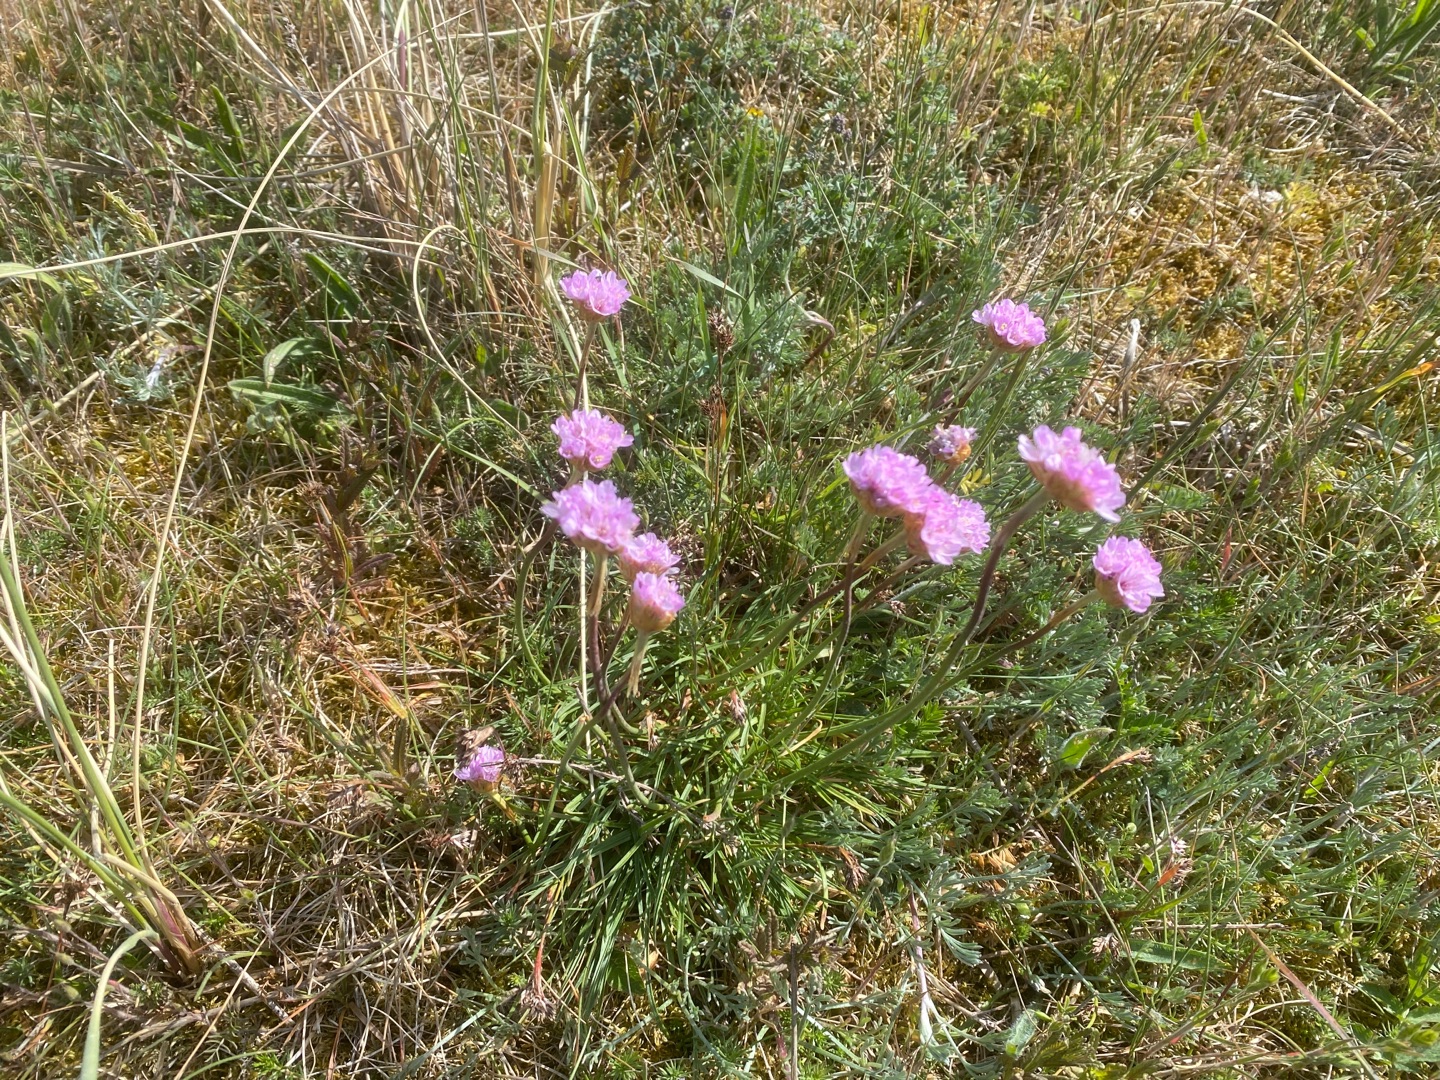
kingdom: Plantae
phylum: Tracheophyta
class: Magnoliopsida
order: Caryophyllales
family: Plumbaginaceae
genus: Armeria
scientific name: Armeria maritima
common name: Engelskgræs
